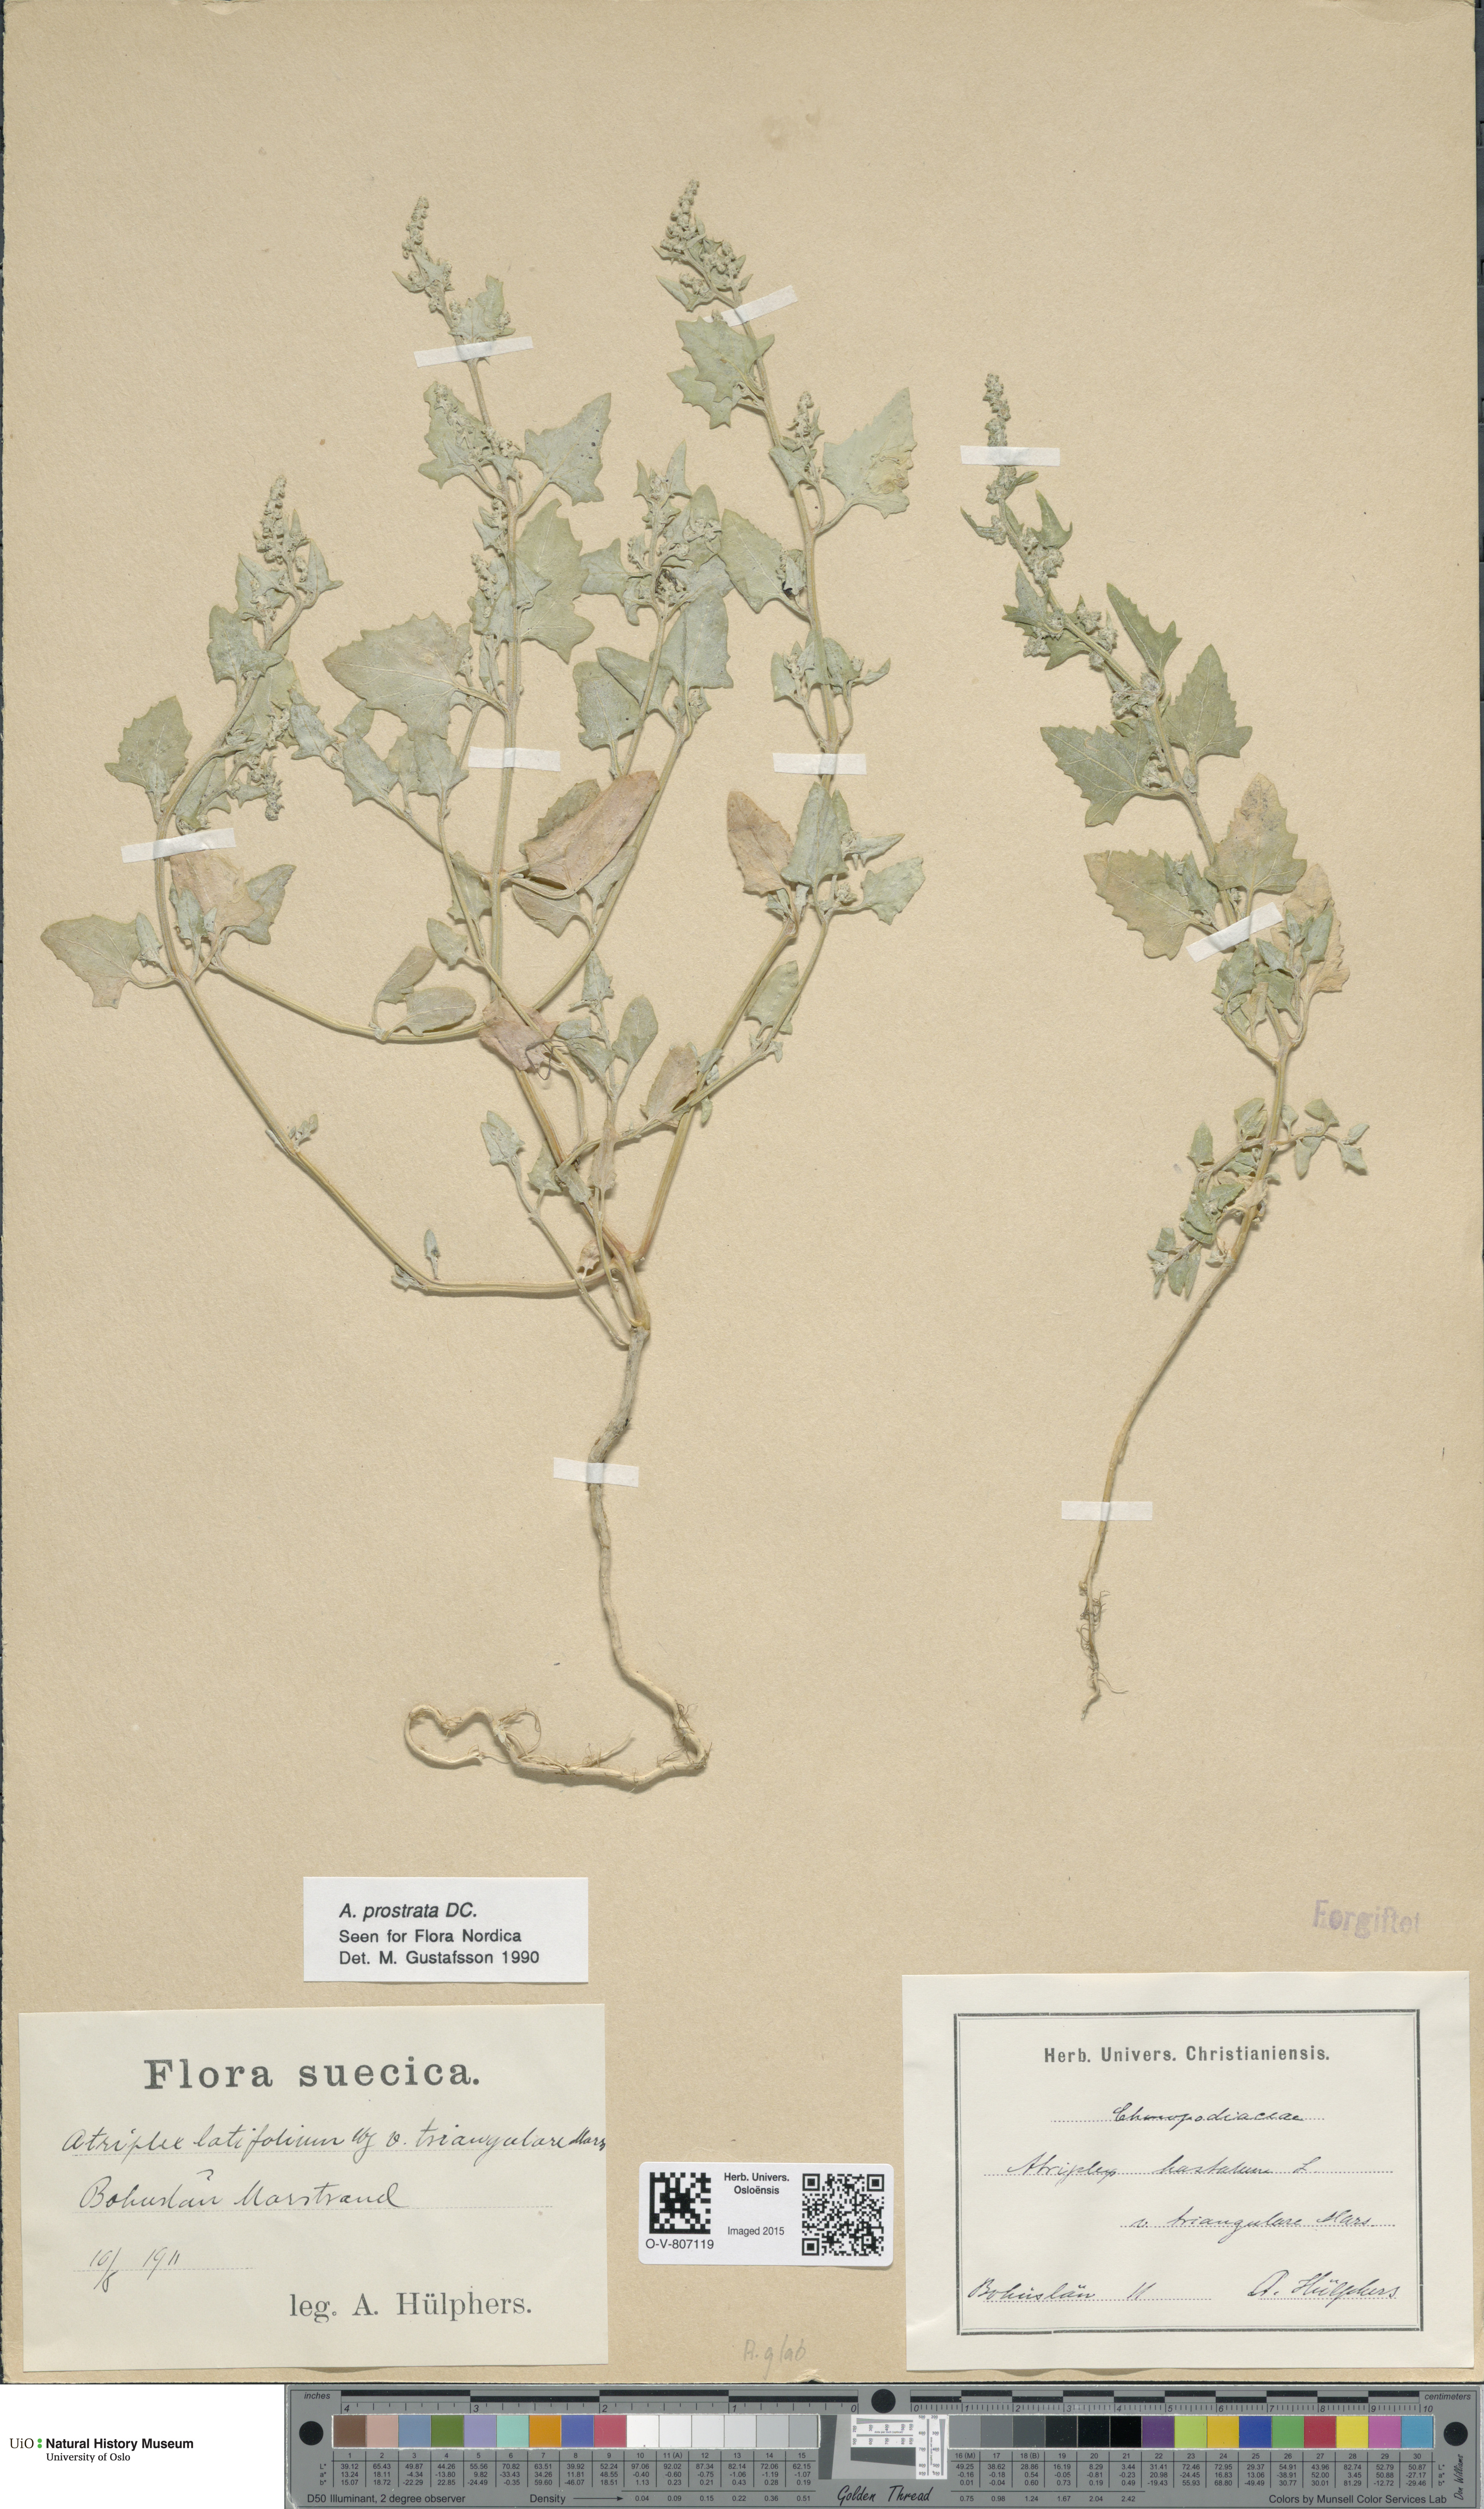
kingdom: Plantae
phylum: Tracheophyta
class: Magnoliopsida
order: Caryophyllales
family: Amaranthaceae
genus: Atriplex
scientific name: Atriplex prostrata
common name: Spear-leaved orache
